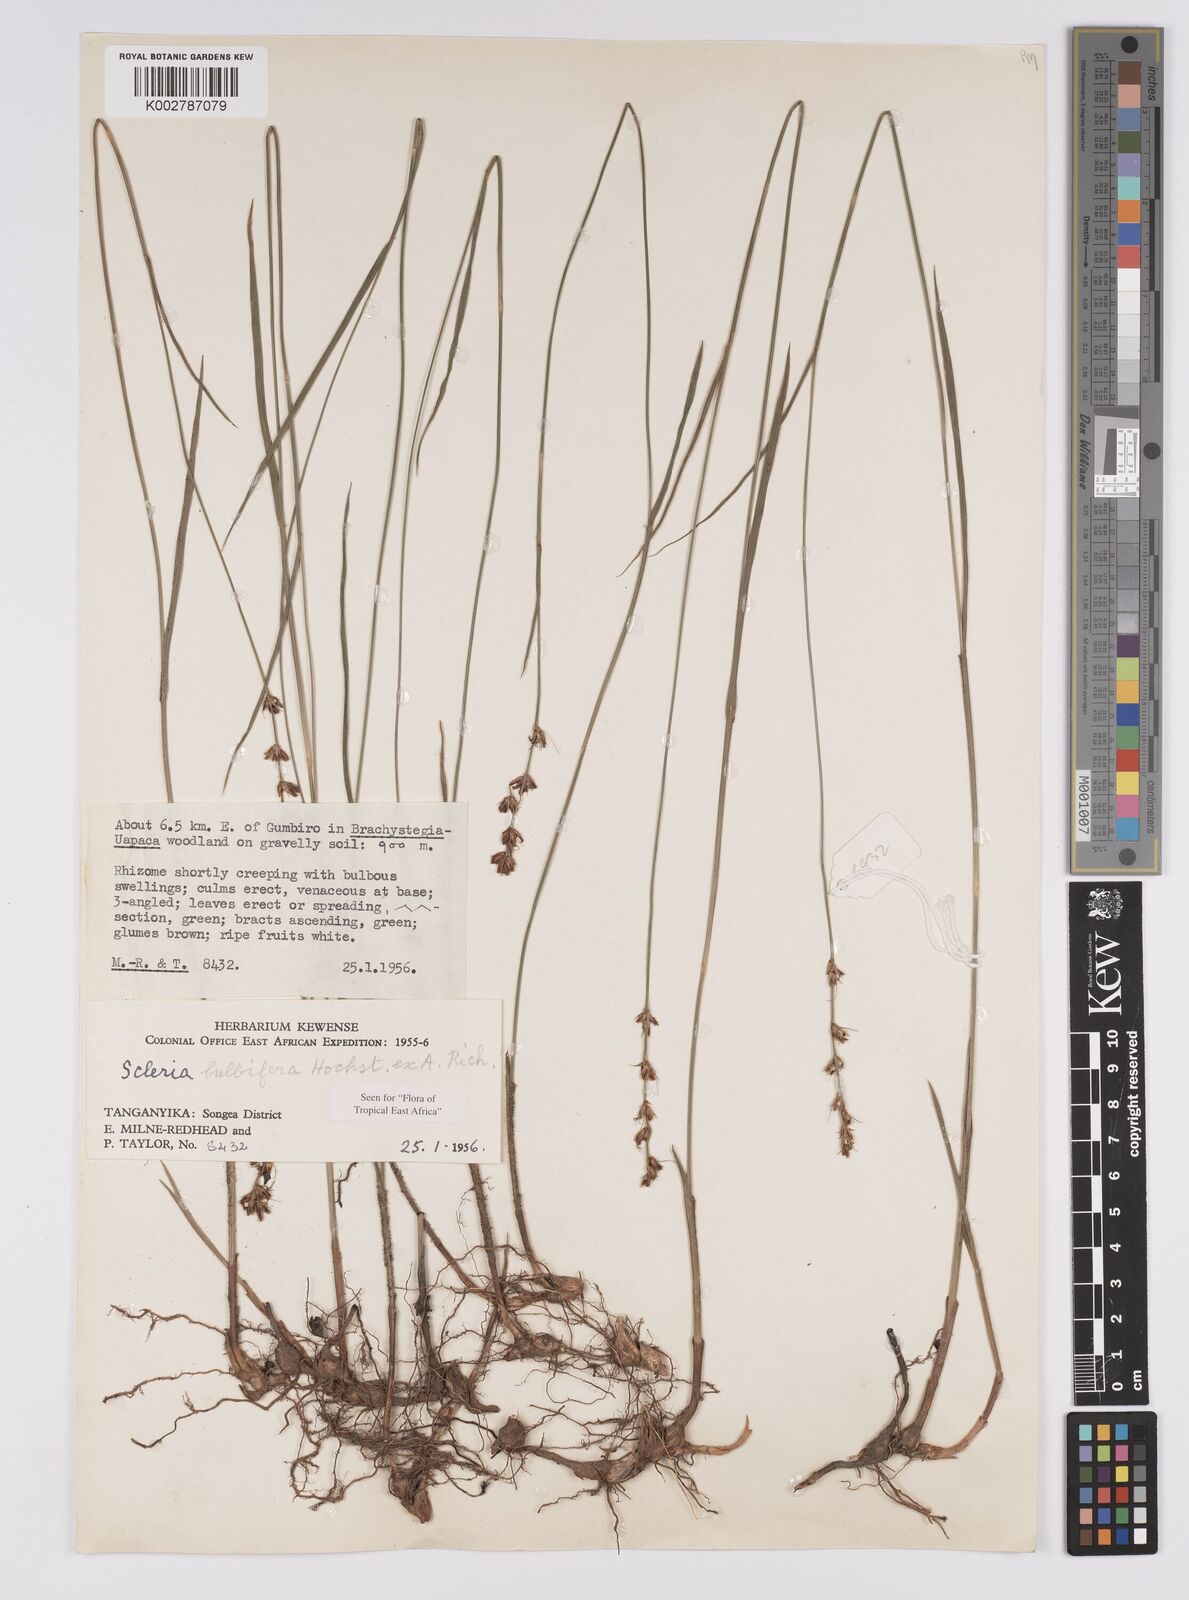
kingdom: Plantae
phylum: Tracheophyta
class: Liliopsida
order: Poales
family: Cyperaceae
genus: Scleria
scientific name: Scleria bulbifera
